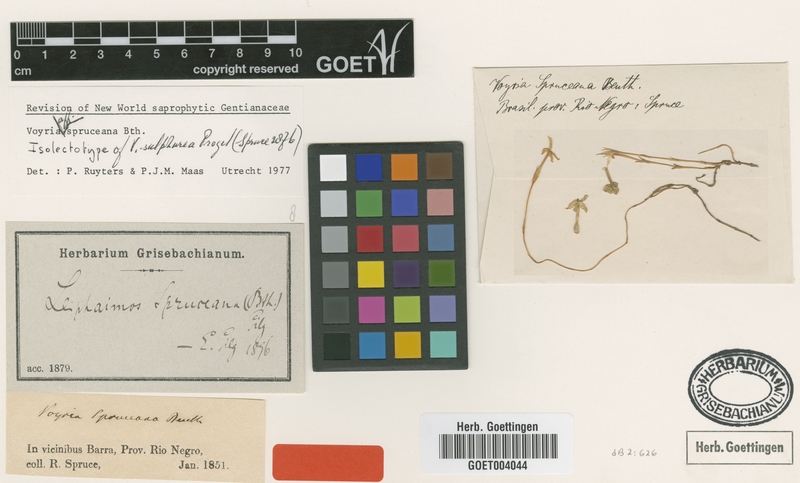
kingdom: Plantae
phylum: Tracheophyta
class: Magnoliopsida
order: Gentianales
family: Gentianaceae
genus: Voyria
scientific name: Voyria spruceana
